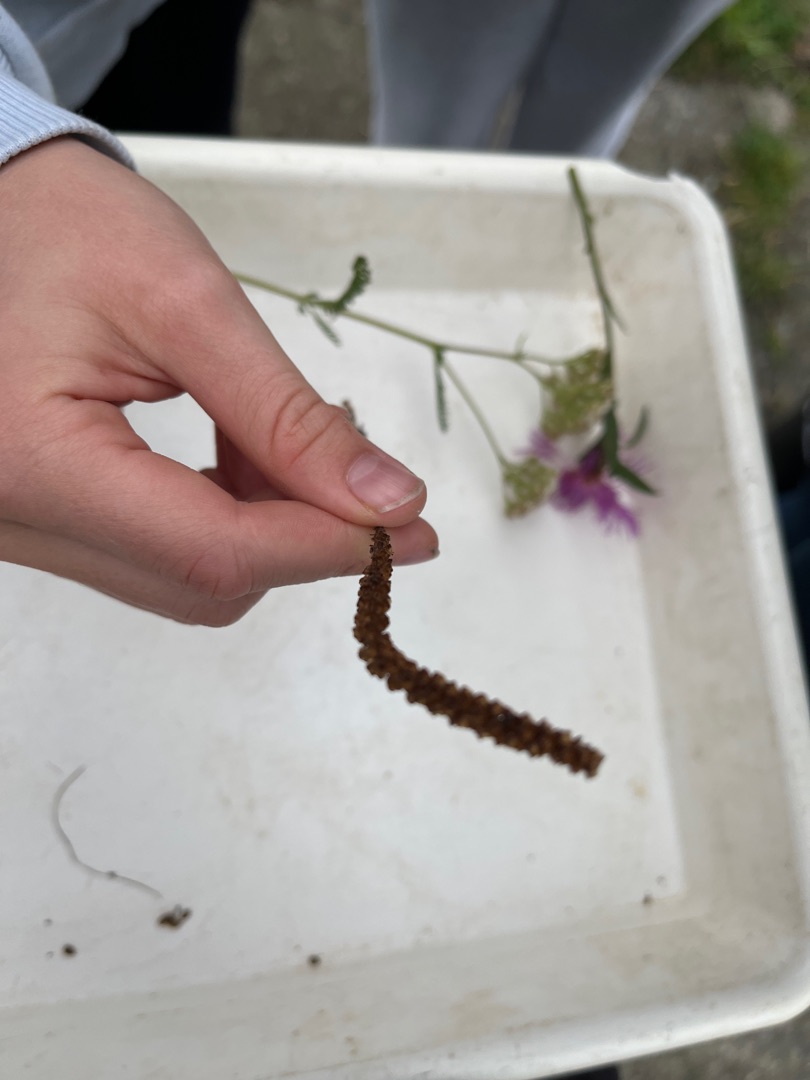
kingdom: Plantae
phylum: Tracheophyta
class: Magnoliopsida
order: Lamiales
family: Plantaginaceae
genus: Plantago
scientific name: Plantago major
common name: Glat vejbred
